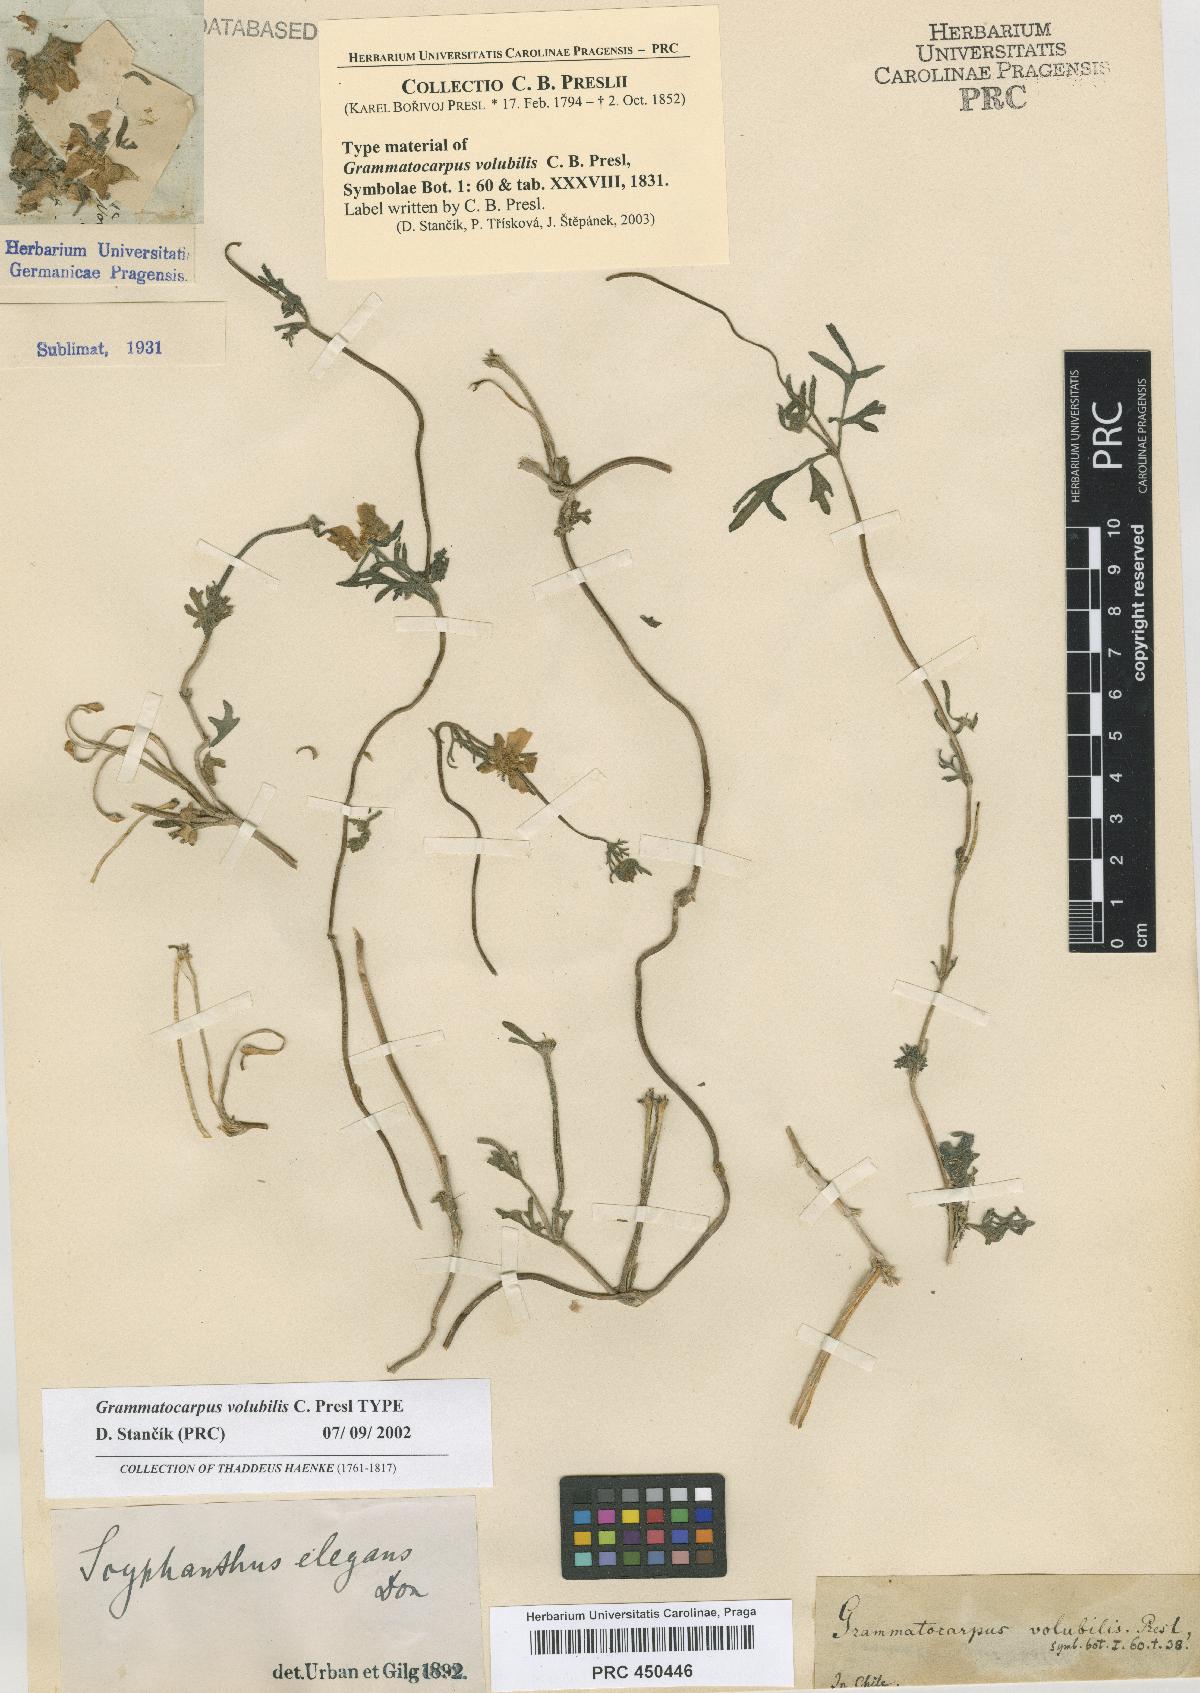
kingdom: Plantae
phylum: Tracheophyta
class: Magnoliopsida
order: Cornales
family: Loasaceae
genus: Scyphanthus
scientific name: Scyphanthus elegans
